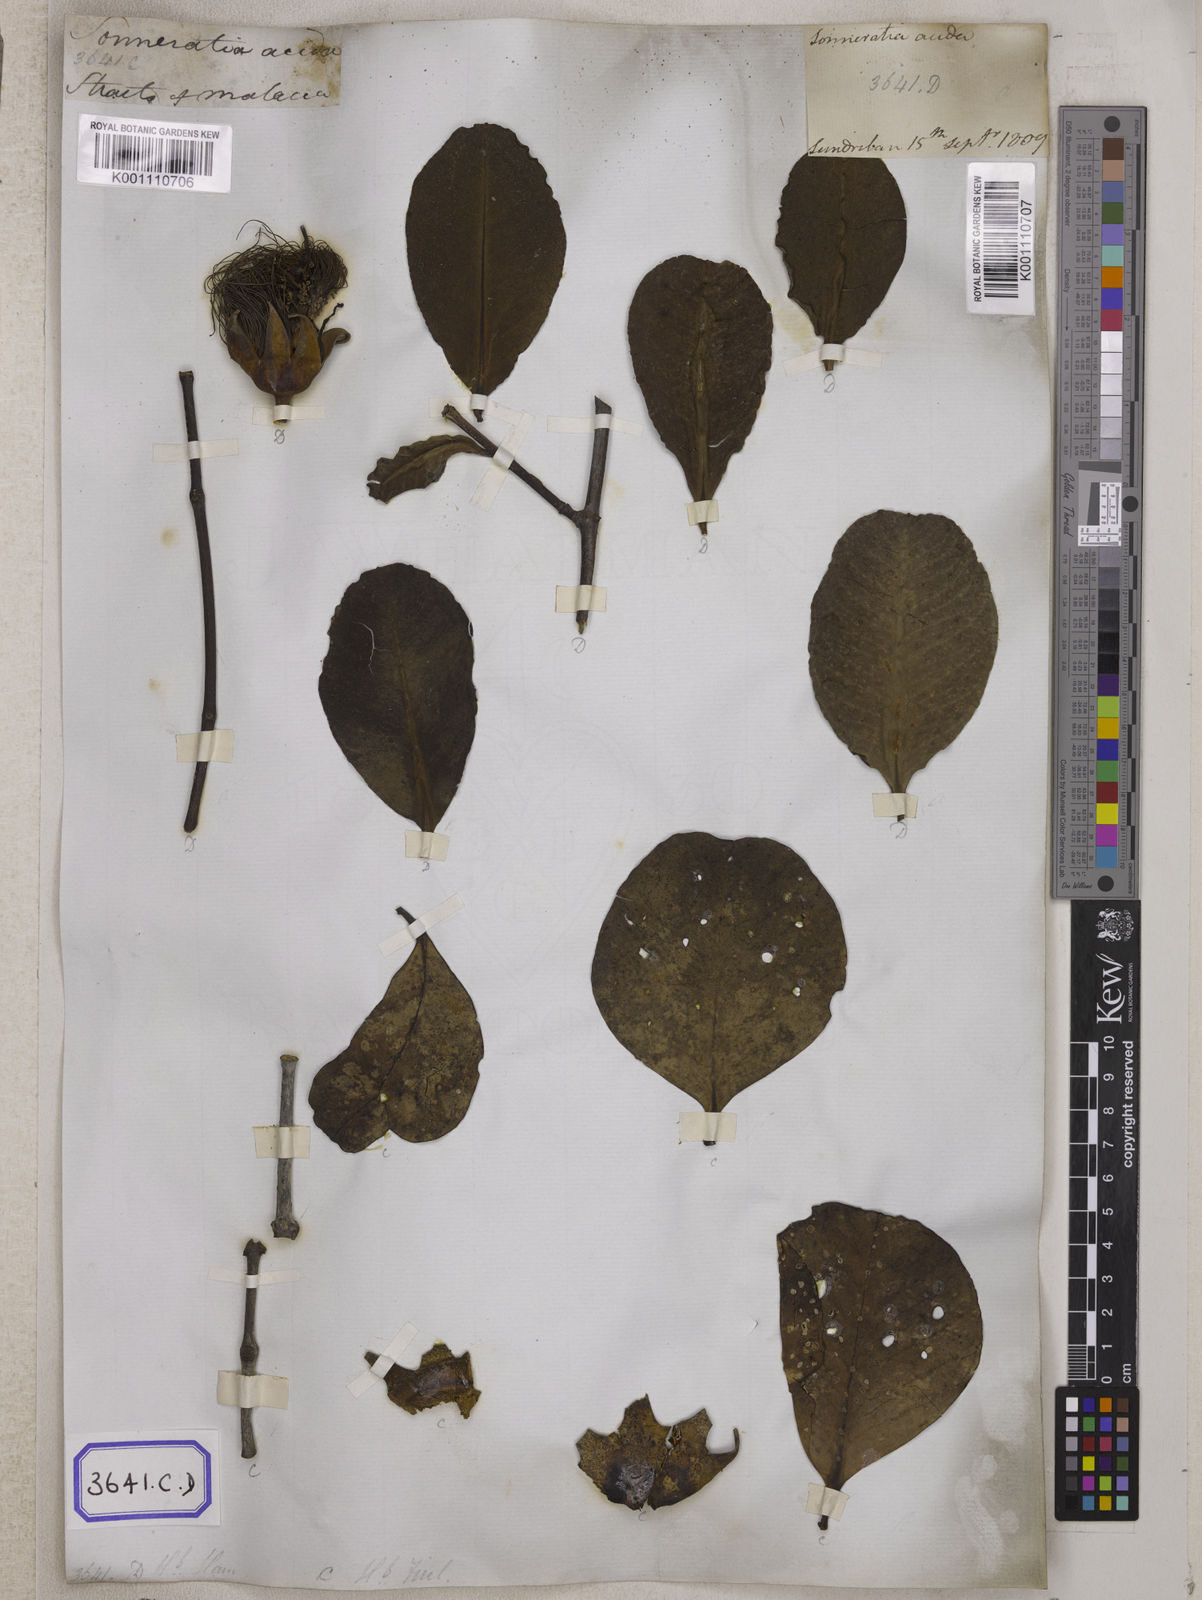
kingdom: Plantae
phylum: Tracheophyta
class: Magnoliopsida
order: Myrtales
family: Lythraceae
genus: Sonneratia
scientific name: Sonneratia caseolaris
